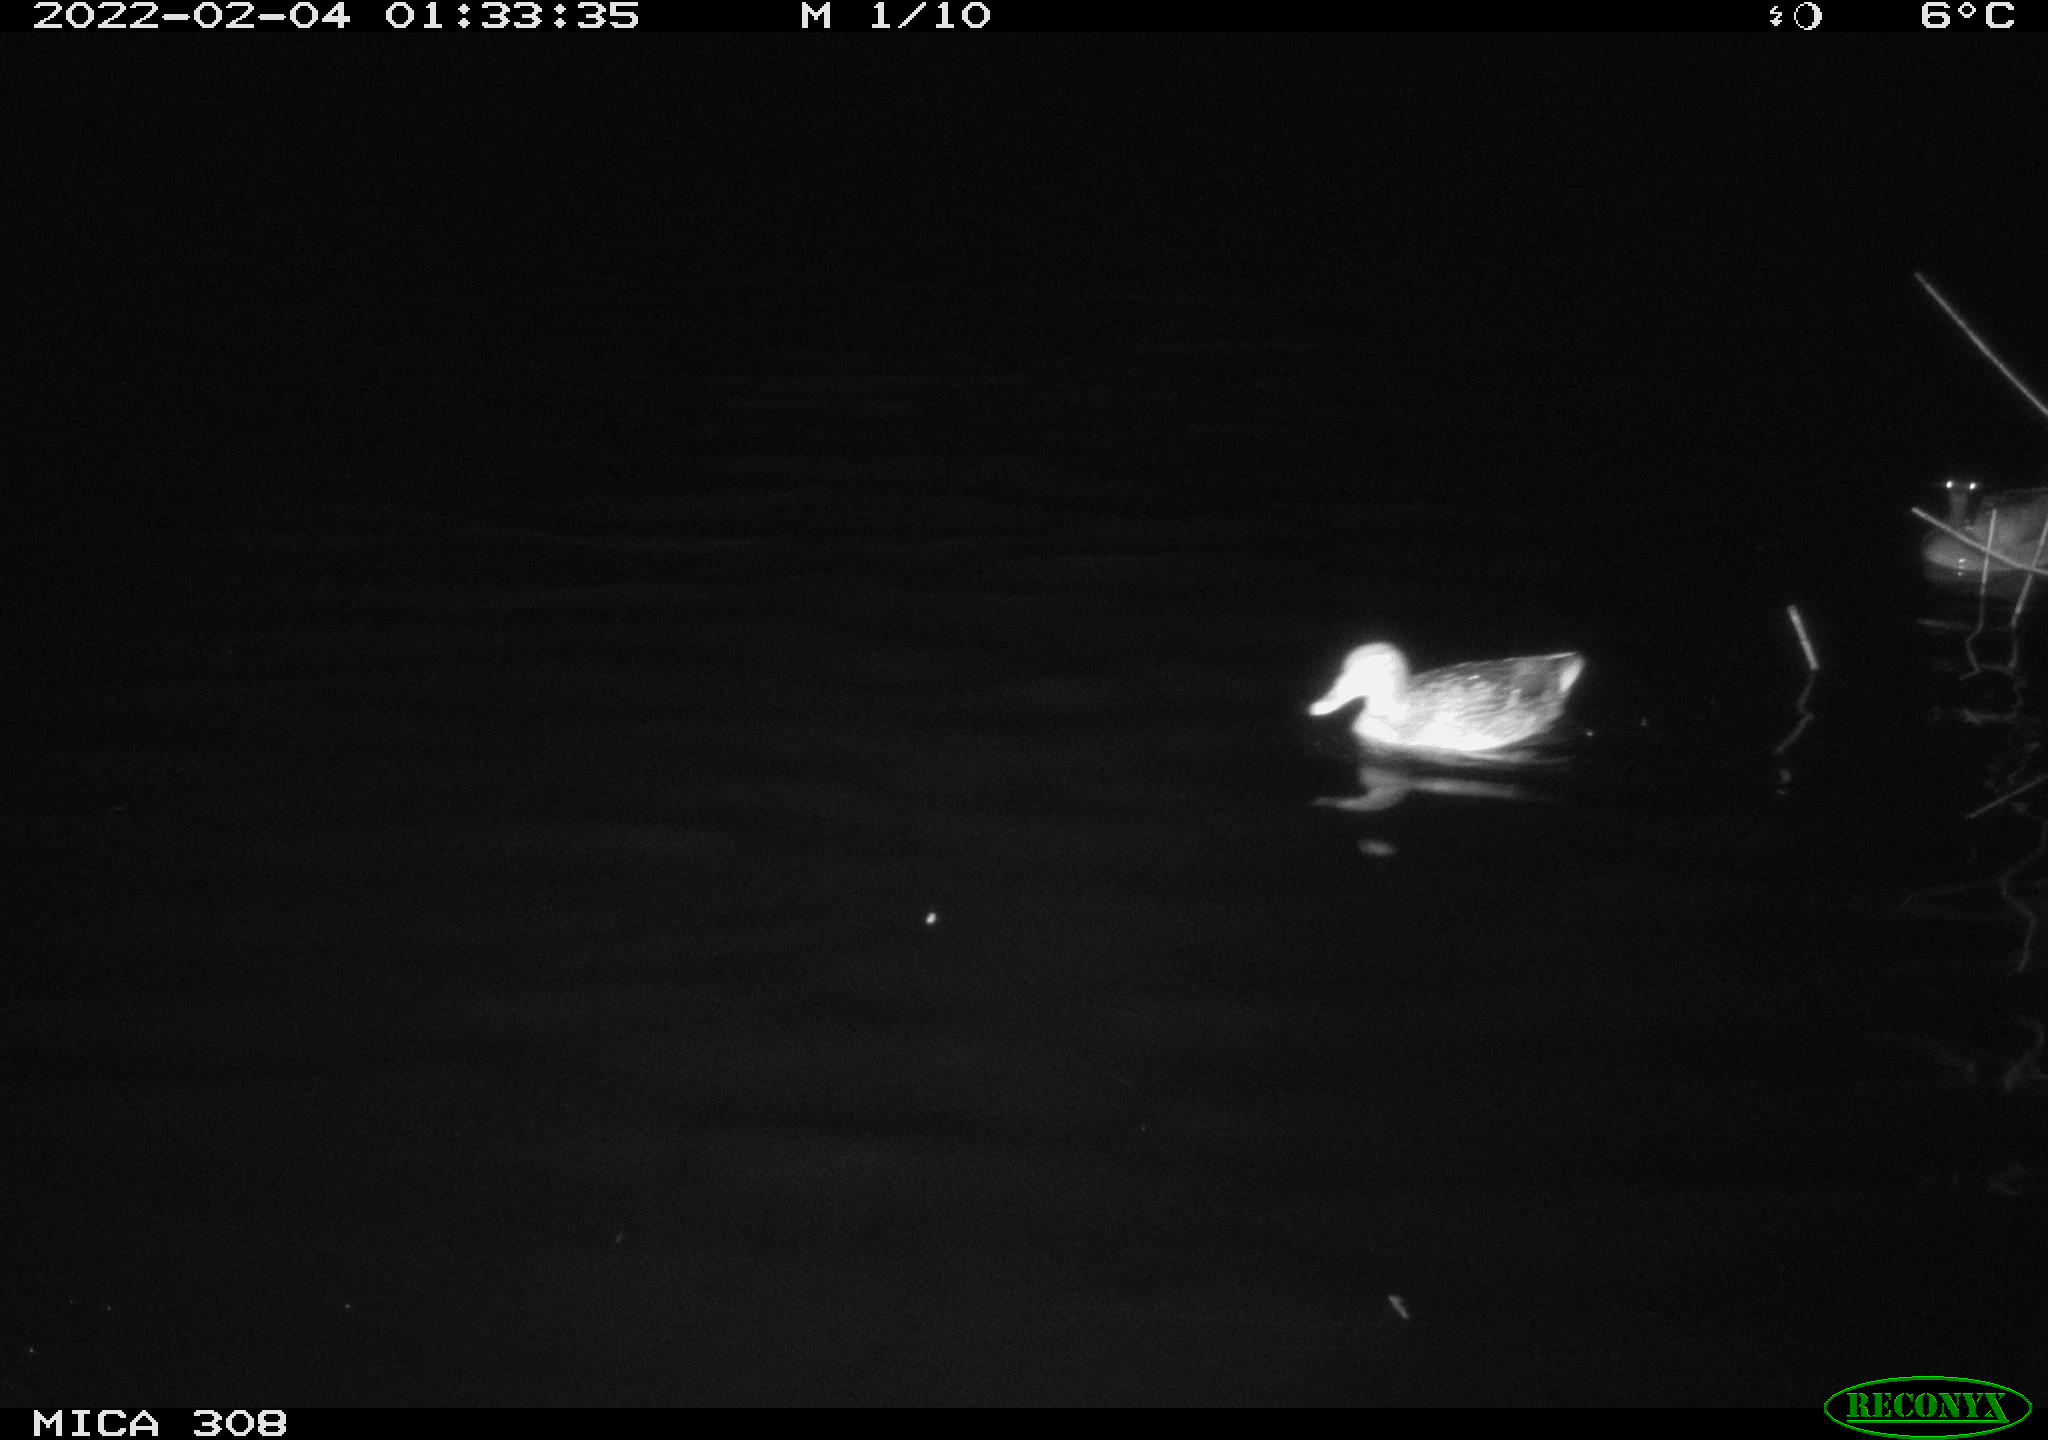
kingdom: Animalia
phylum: Chordata
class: Aves
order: Anseriformes
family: Anatidae
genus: Anas
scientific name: Anas platyrhynchos
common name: Mallard
